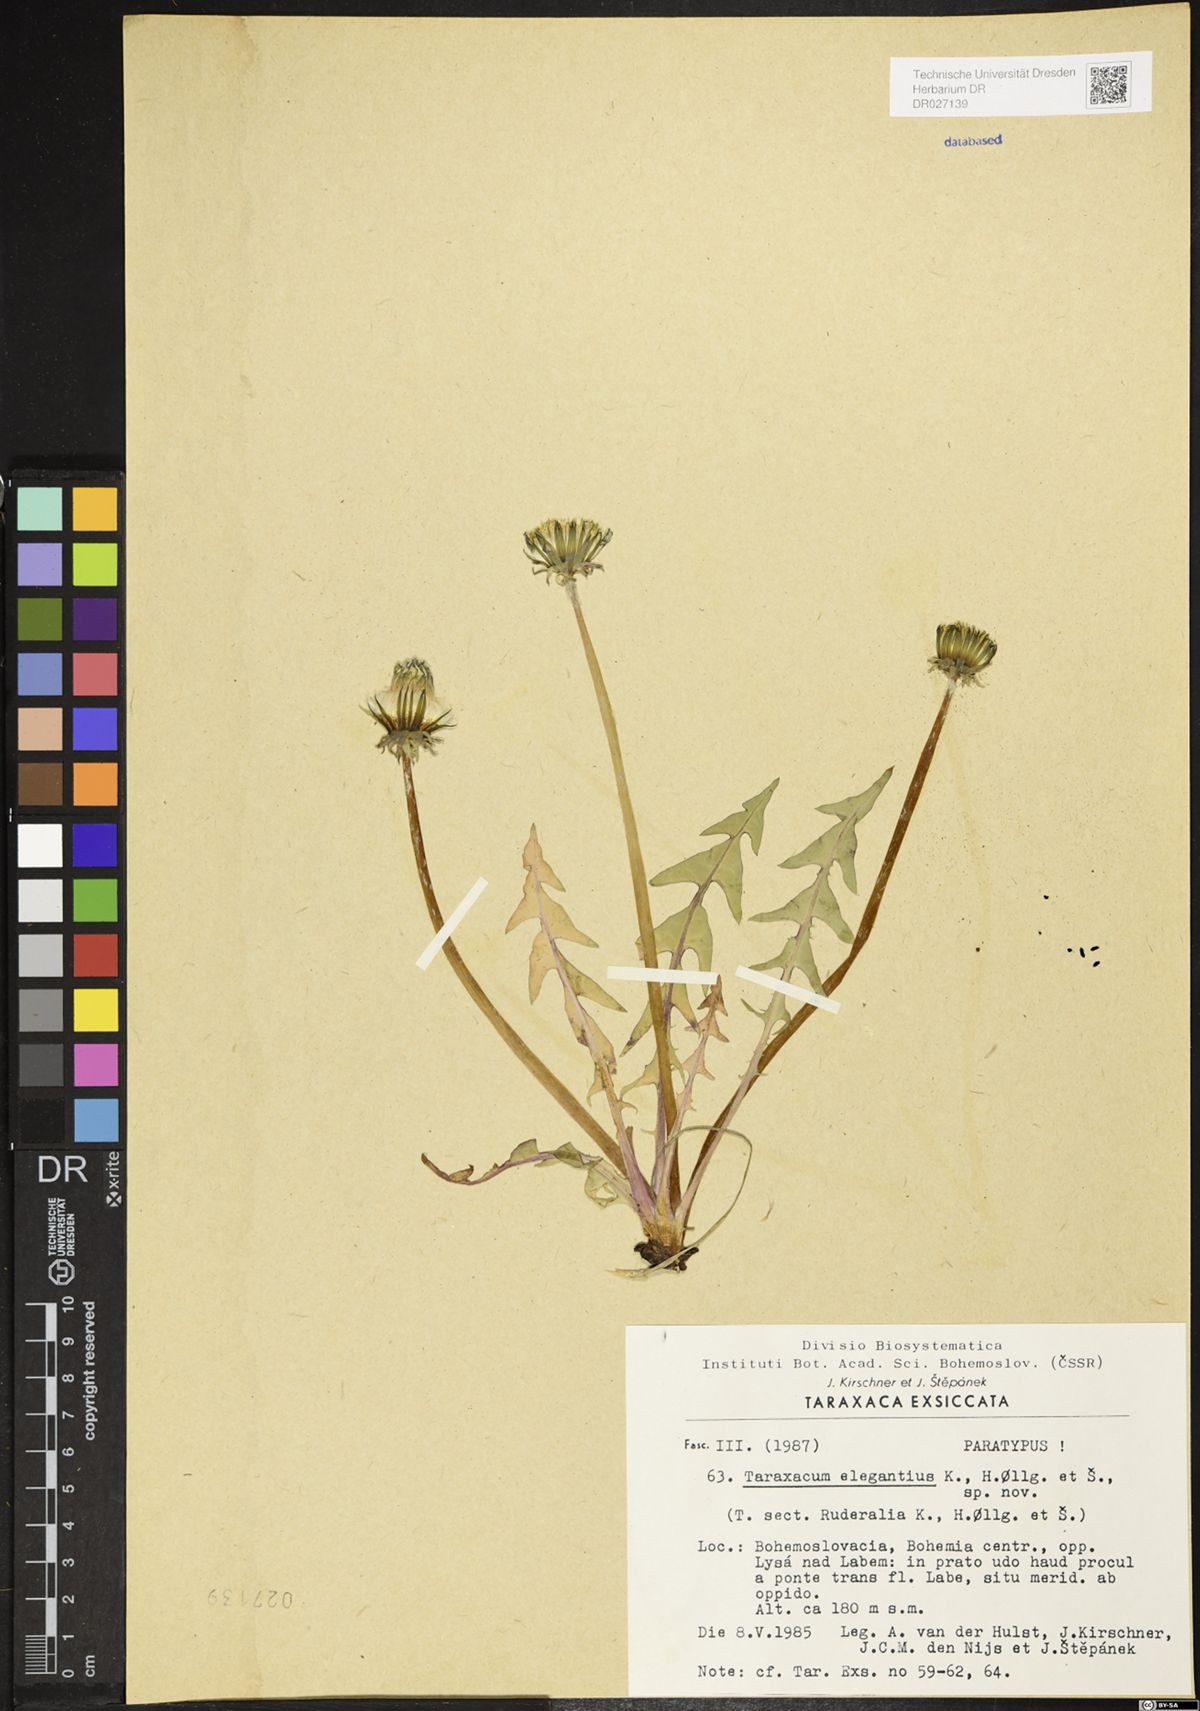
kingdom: Plantae
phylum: Tracheophyta
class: Magnoliopsida
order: Asterales
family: Asteraceae
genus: Taraxacum
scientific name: Taraxacum elegantius
